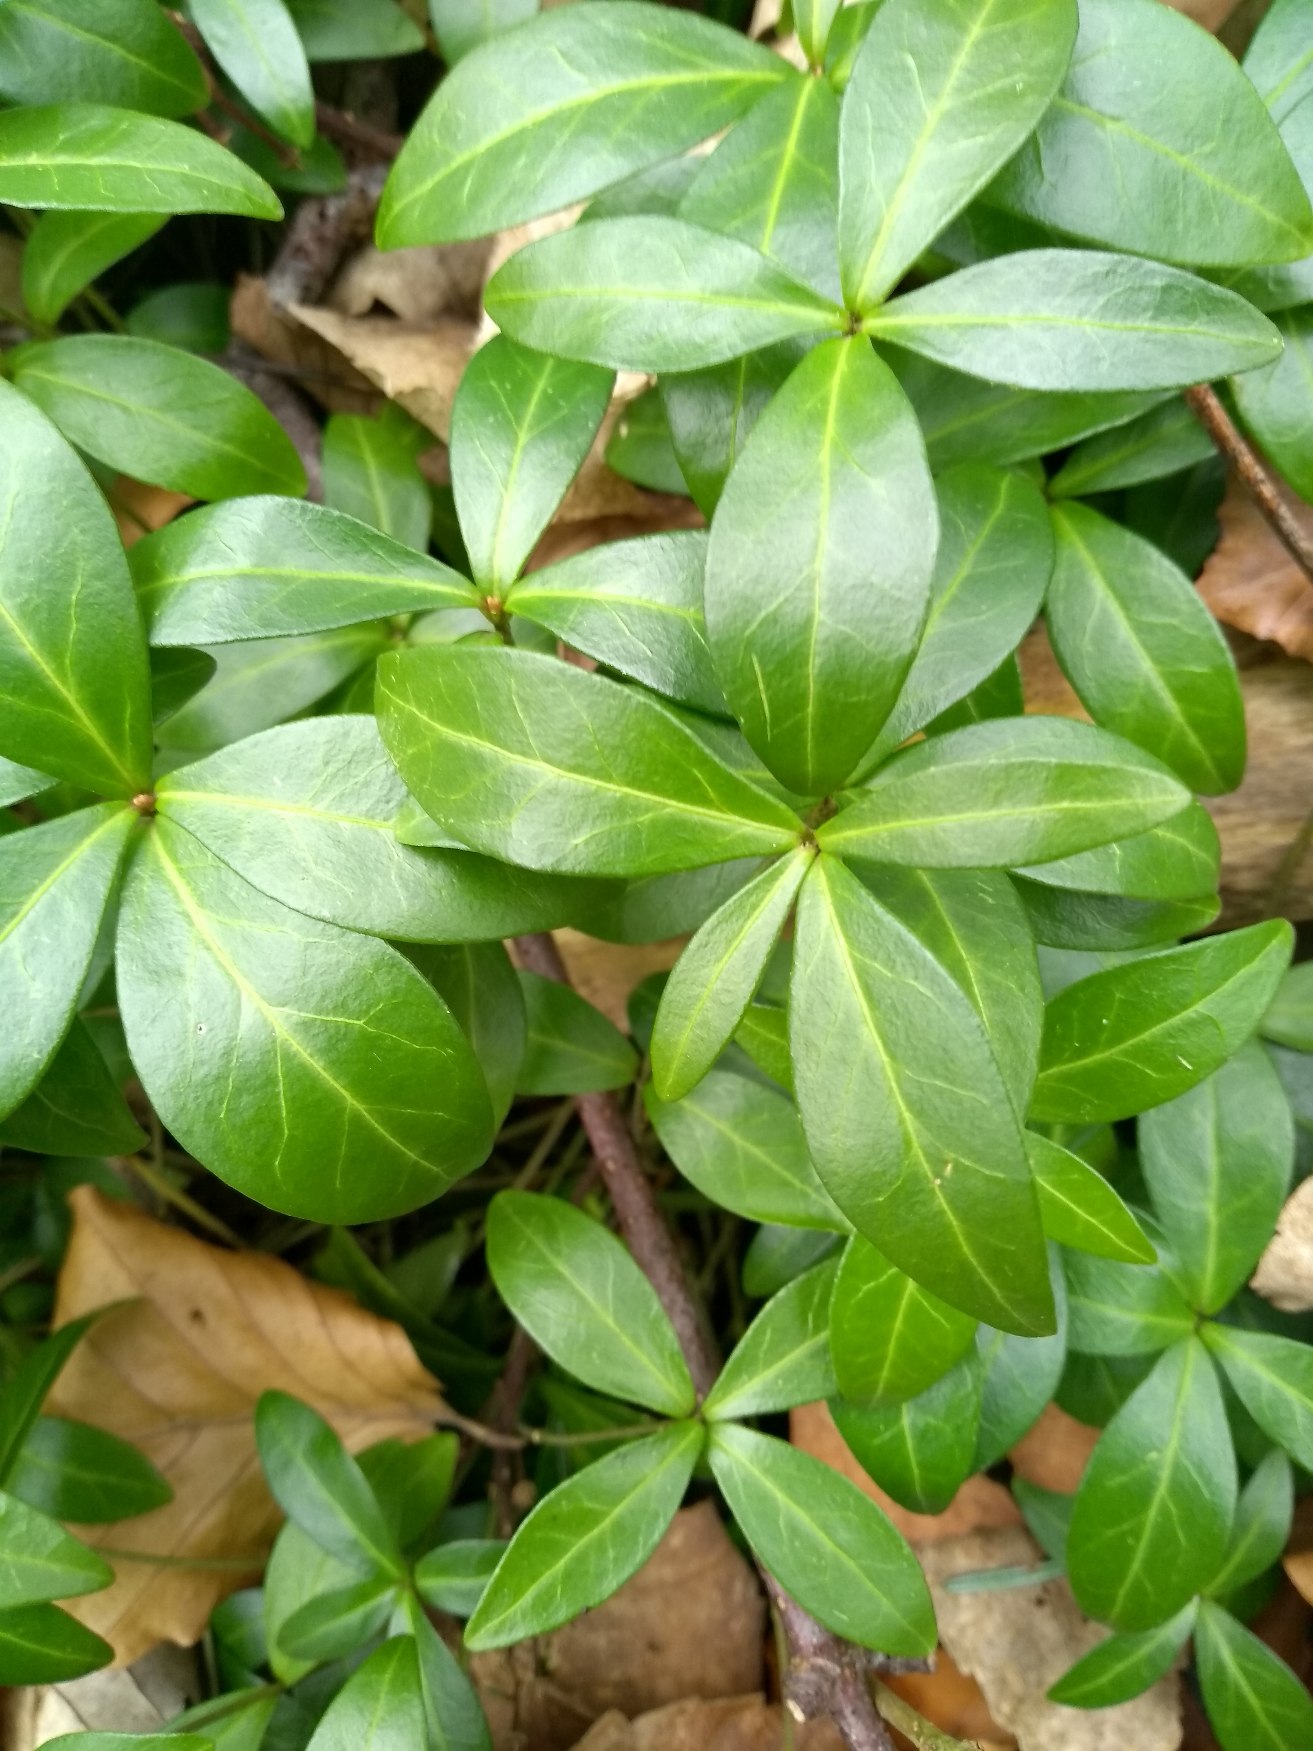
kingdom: Plantae
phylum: Tracheophyta
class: Magnoliopsida
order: Gentianales
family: Apocynaceae
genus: Vinca
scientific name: Vinca minor
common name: Liden singrøn
